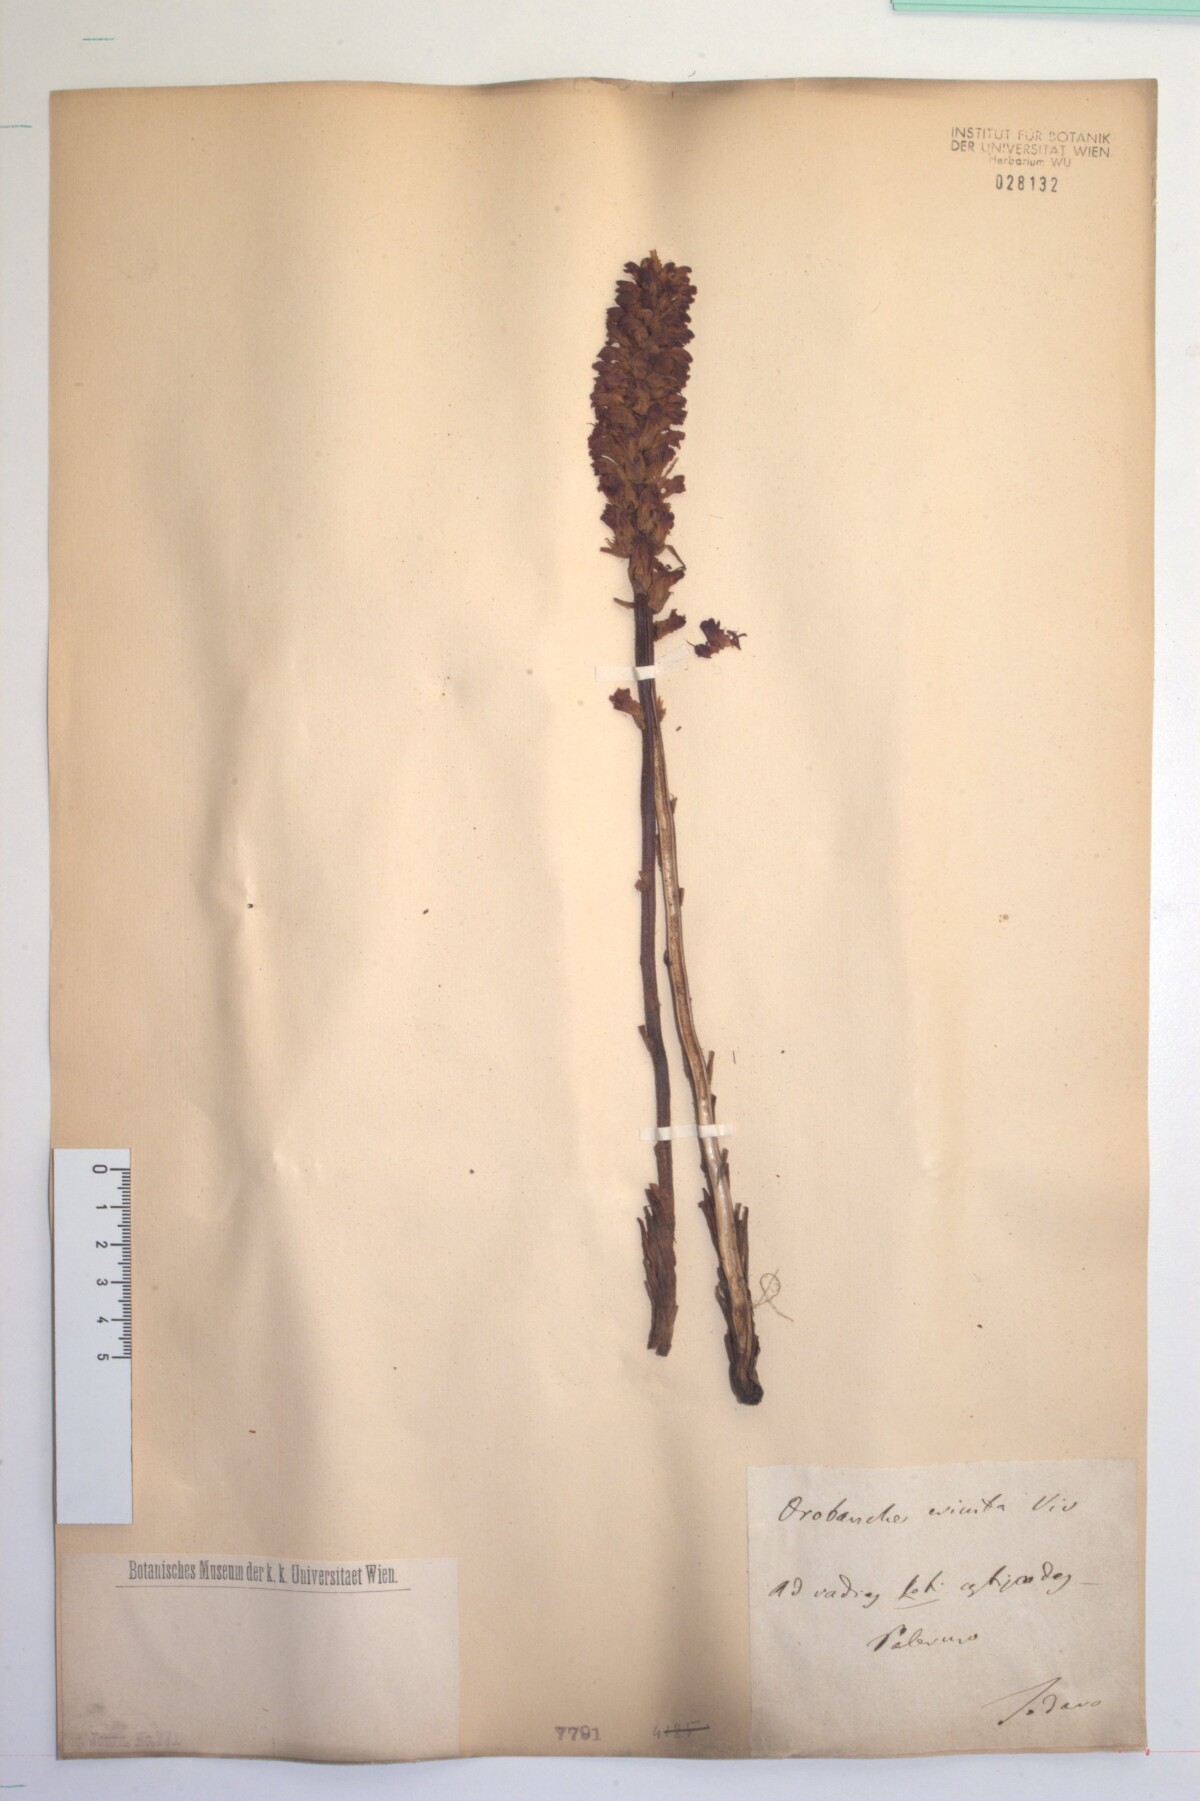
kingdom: Plantae
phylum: Tracheophyta
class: Magnoliopsida
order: Lamiales
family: Orobanchaceae
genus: Orobanche
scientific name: Orobanche sanguinea
